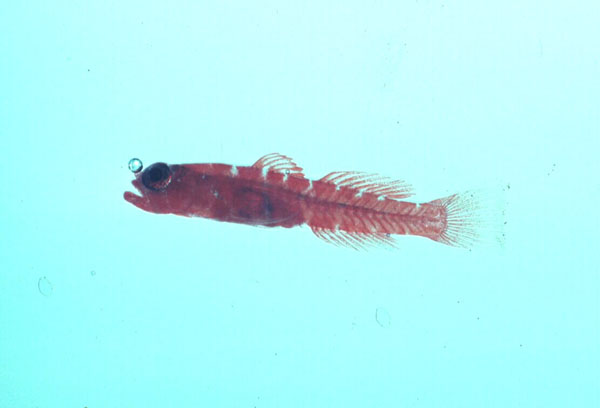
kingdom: Animalia
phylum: Chordata
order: Perciformes
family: Gobiidae
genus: Trimmatom
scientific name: Trimmatom
